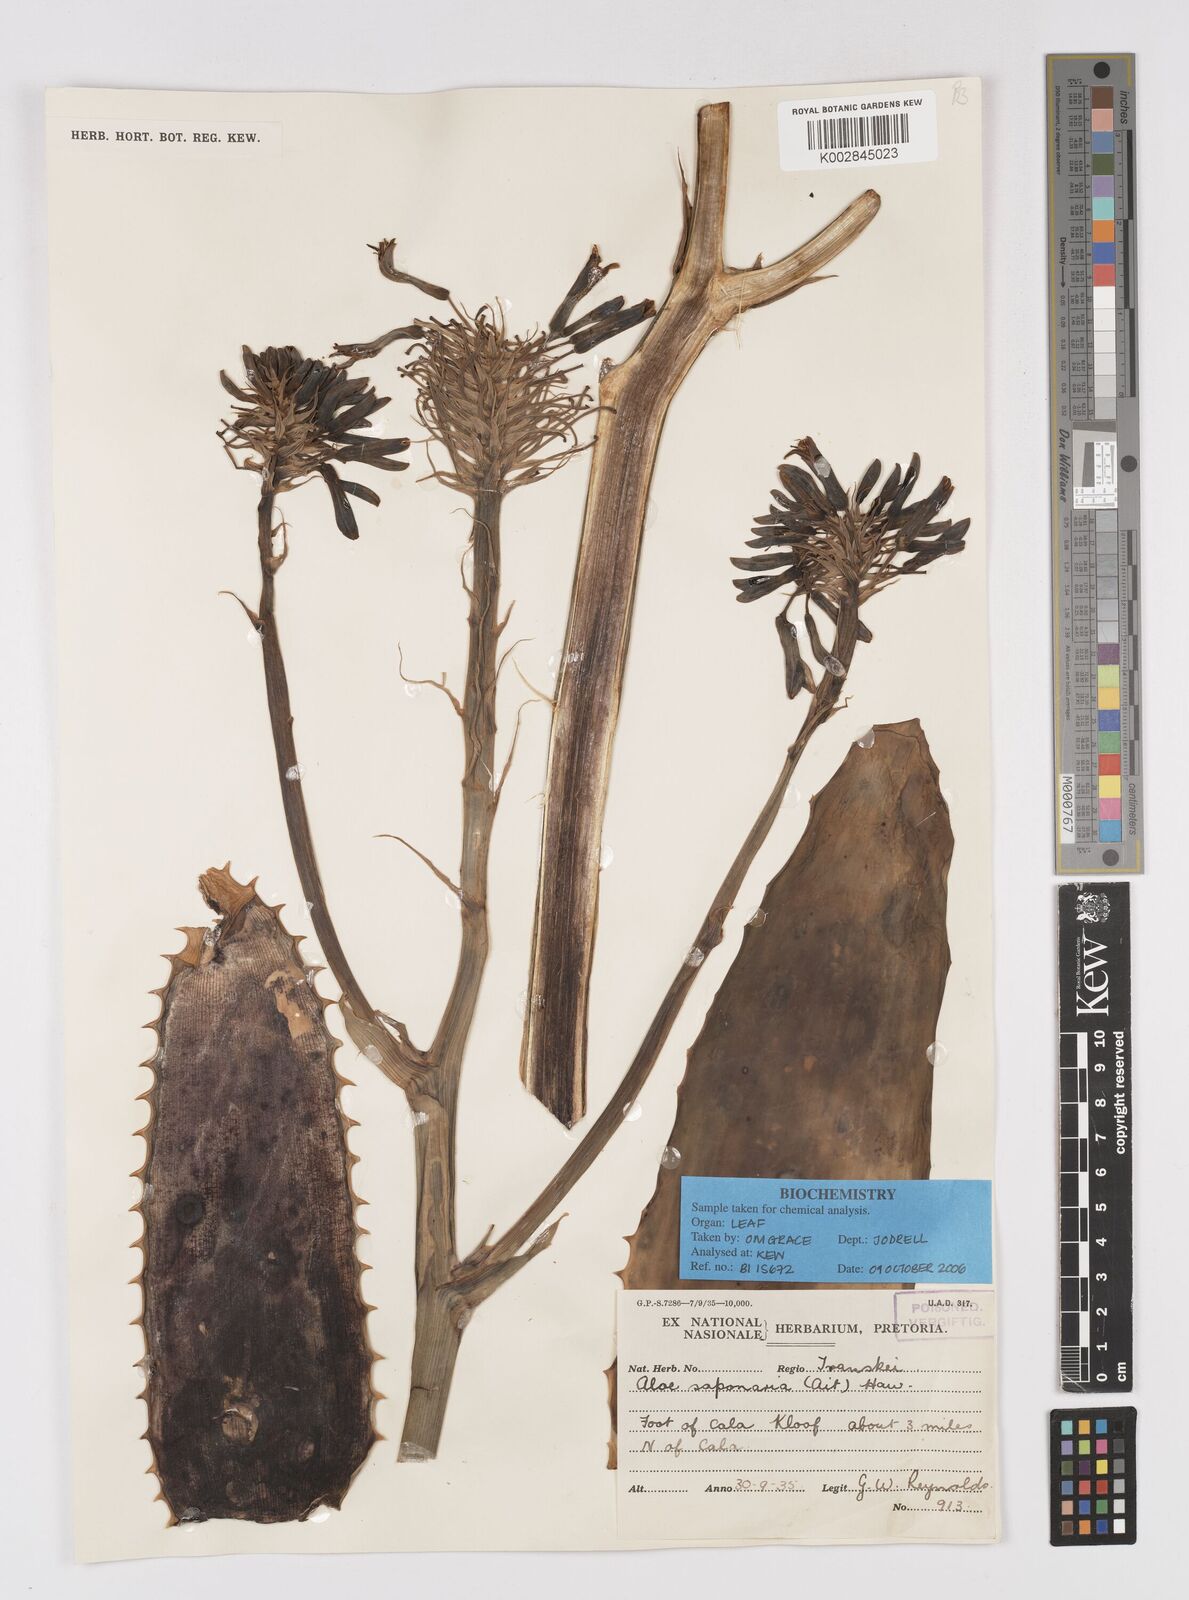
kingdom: Plantae
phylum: Tracheophyta
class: Liliopsida
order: Asparagales
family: Asphodelaceae
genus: Aloe
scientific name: Aloe microstigma
